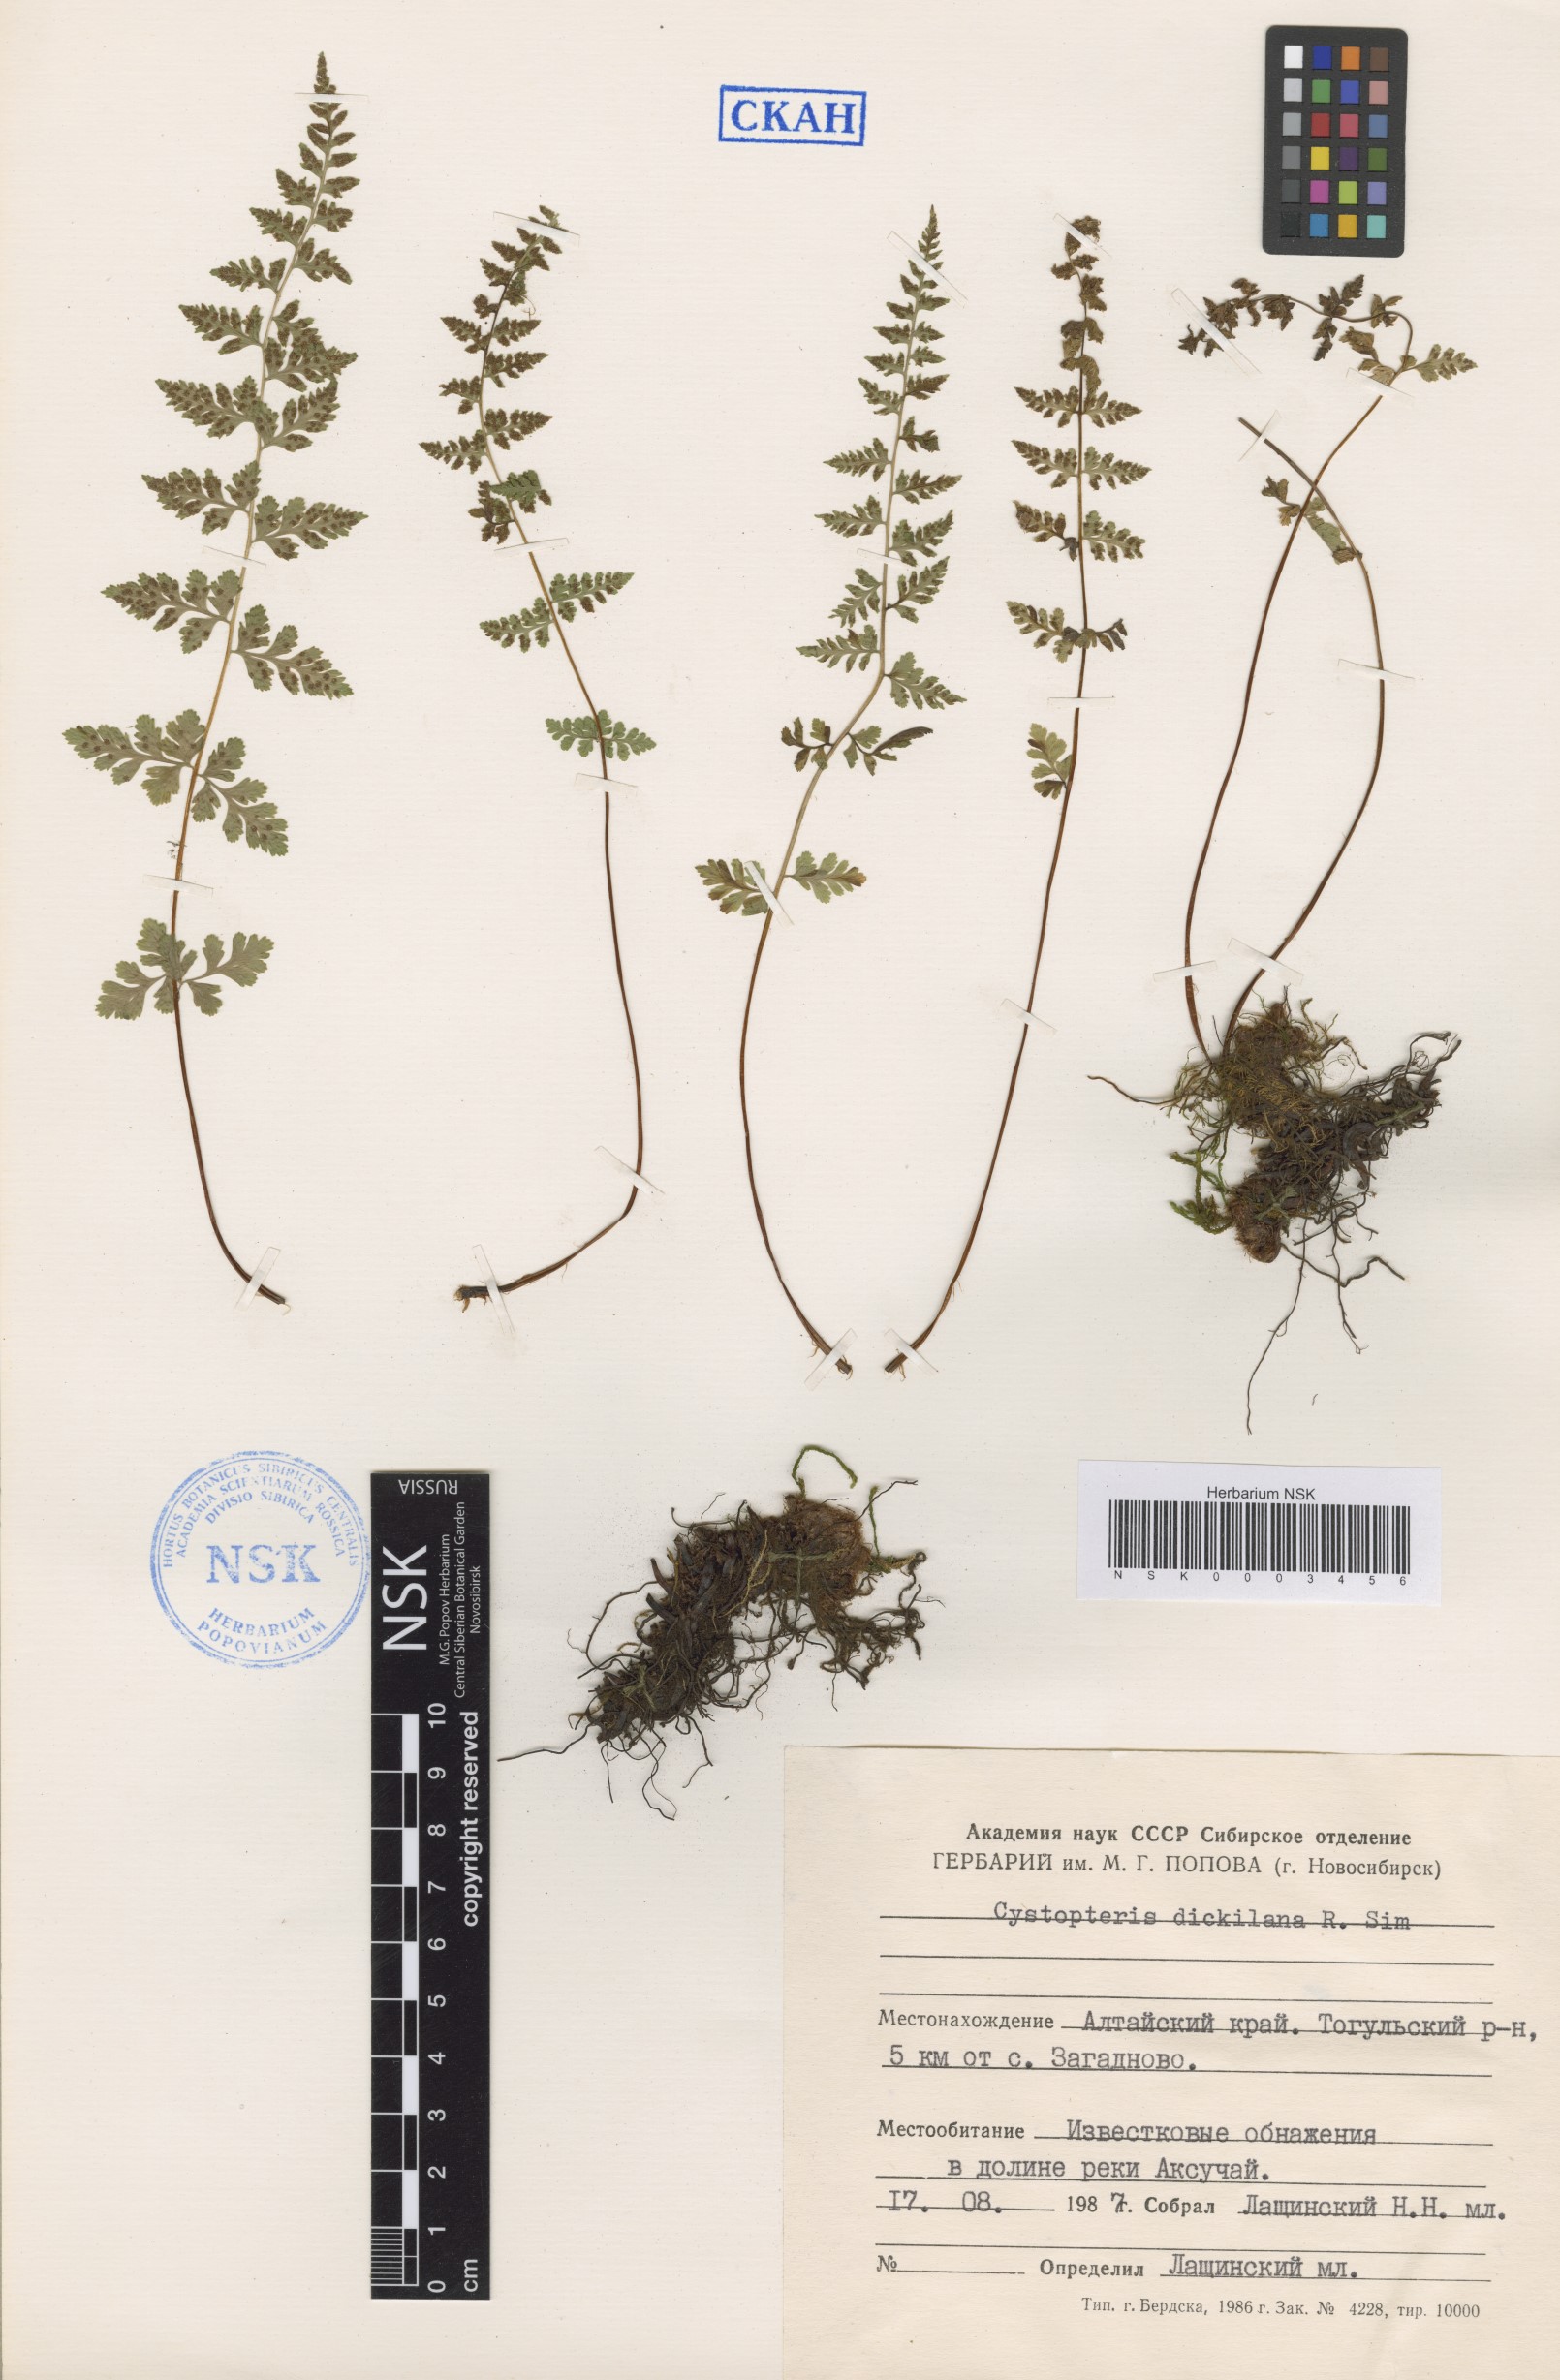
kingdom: Plantae
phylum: Tracheophyta
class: Polypodiopsida
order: Polypodiales
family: Cystopteridaceae
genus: Cystopteris
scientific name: Cystopteris dickieana
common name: Dickie's bladder-fern
